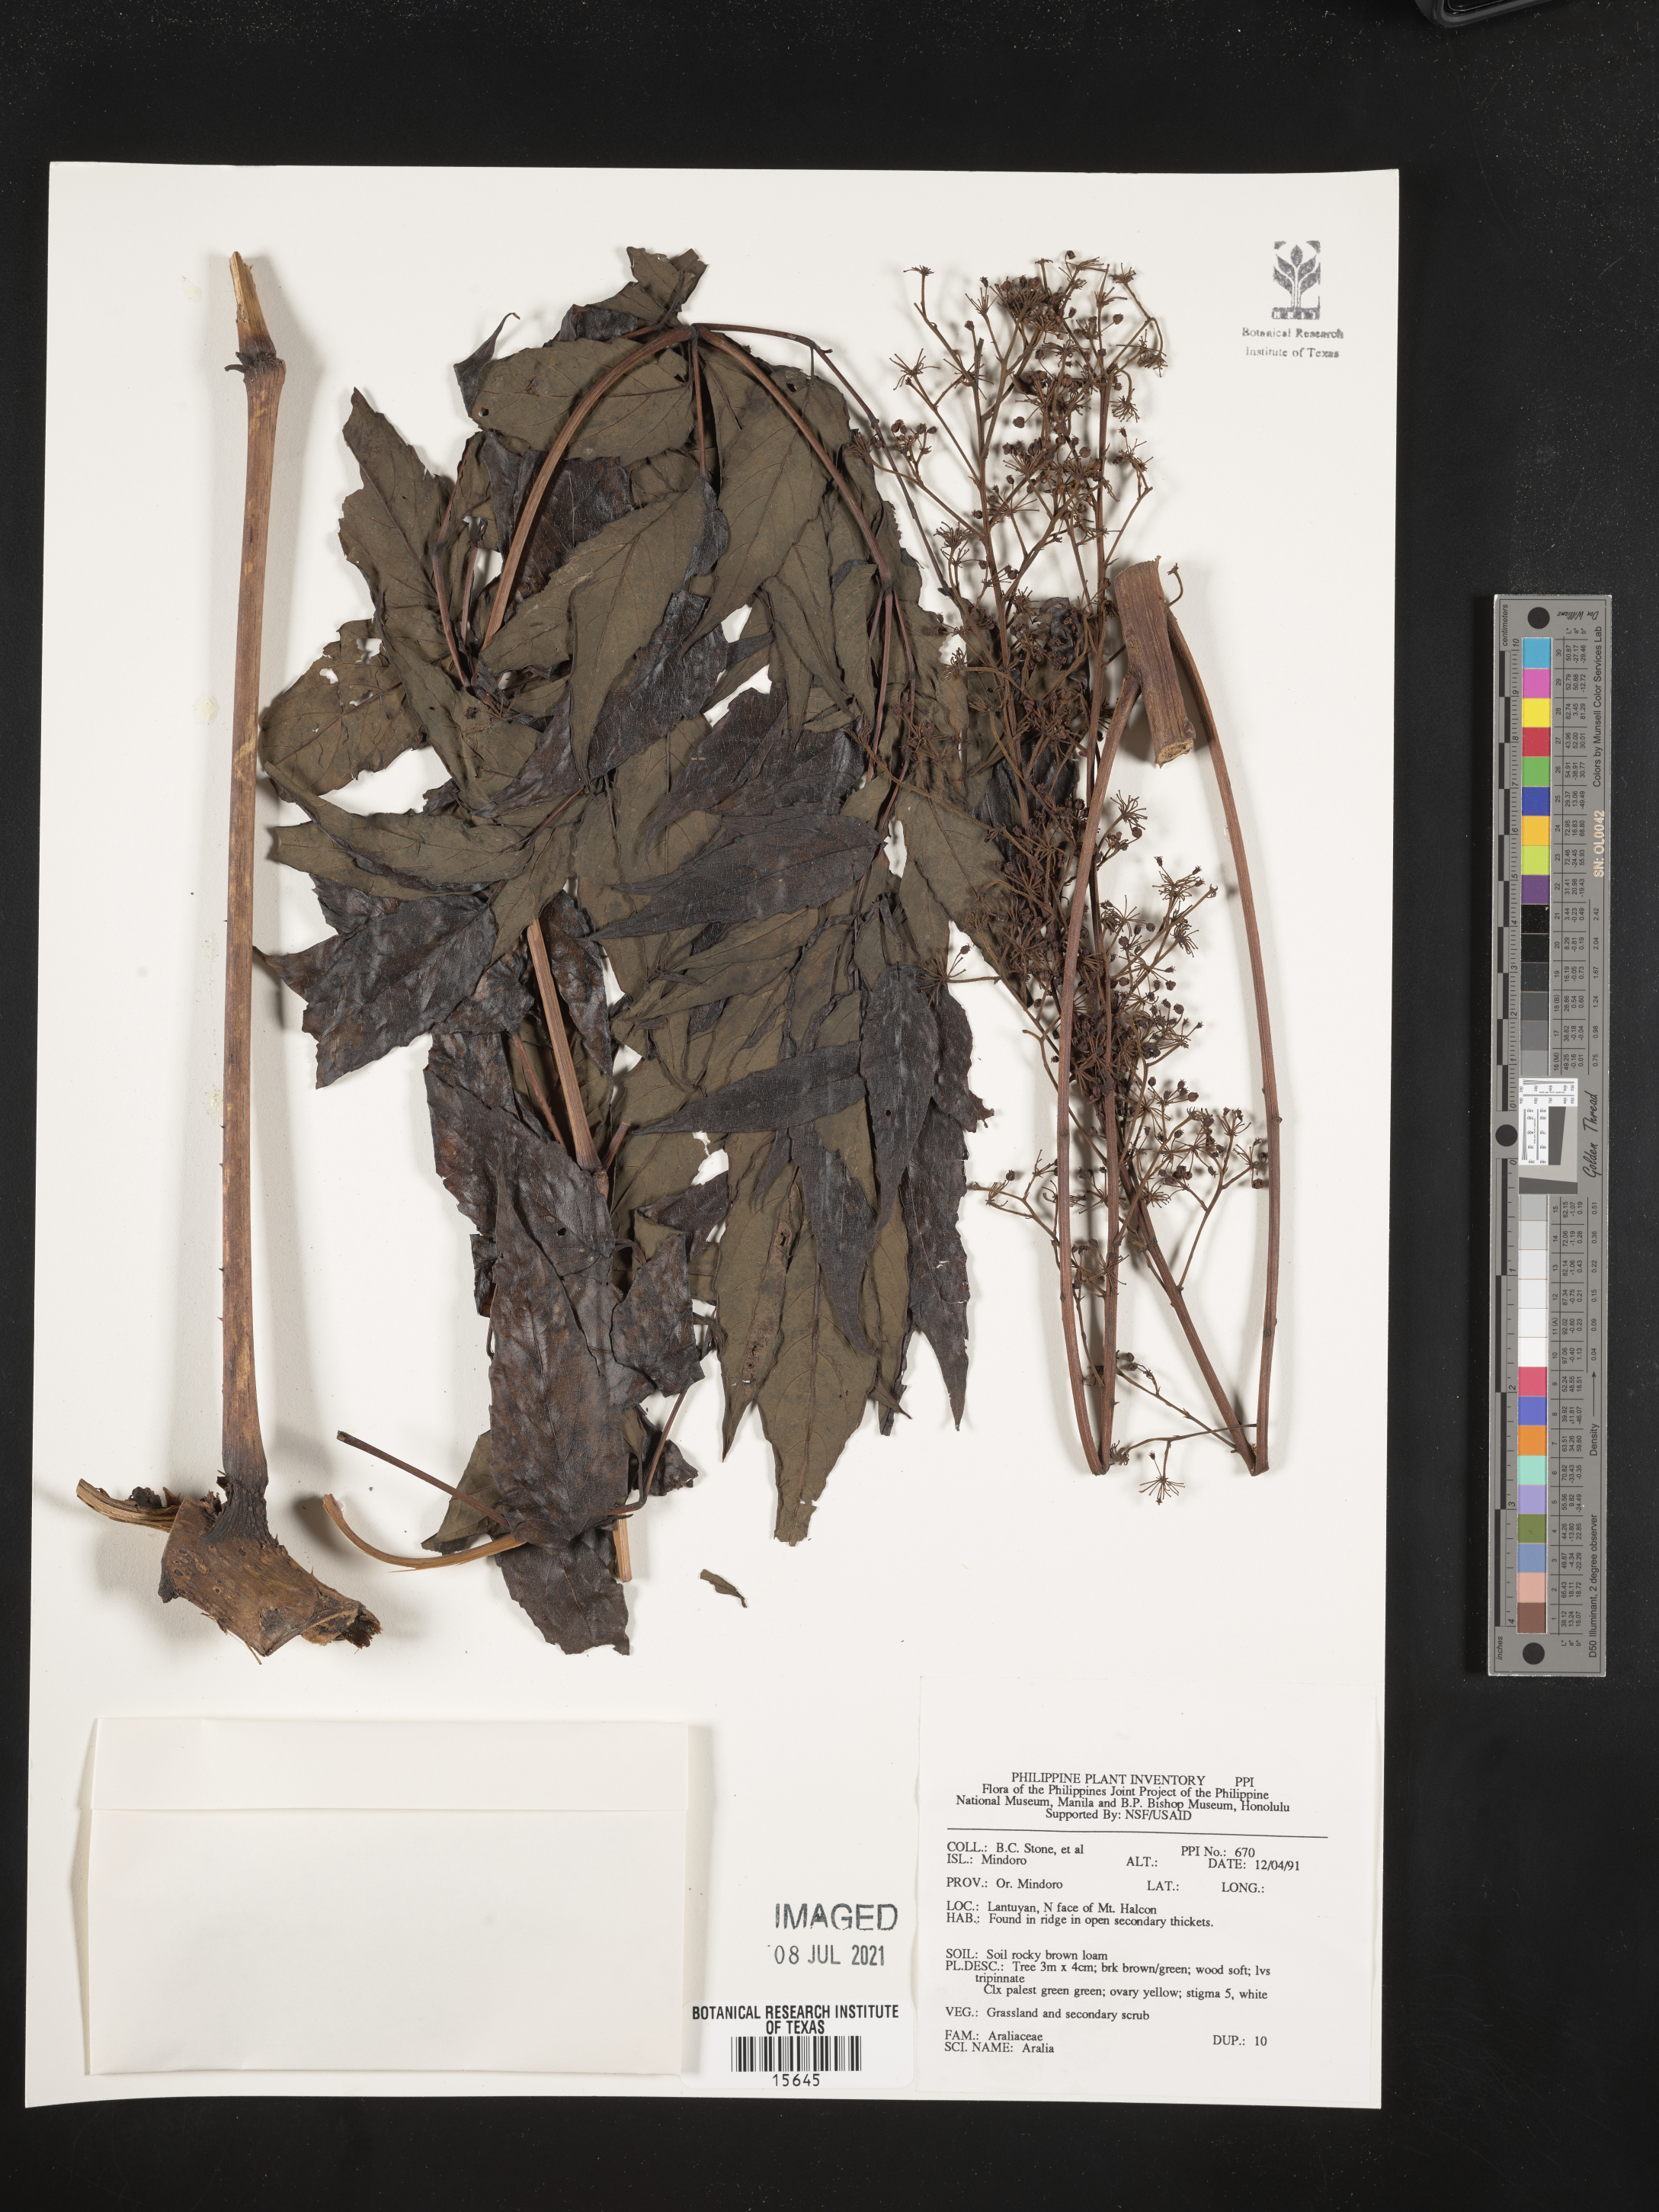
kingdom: Plantae
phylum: Tracheophyta
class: Magnoliopsida
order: Apiales
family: Araliaceae
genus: Aralia
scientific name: Aralia
